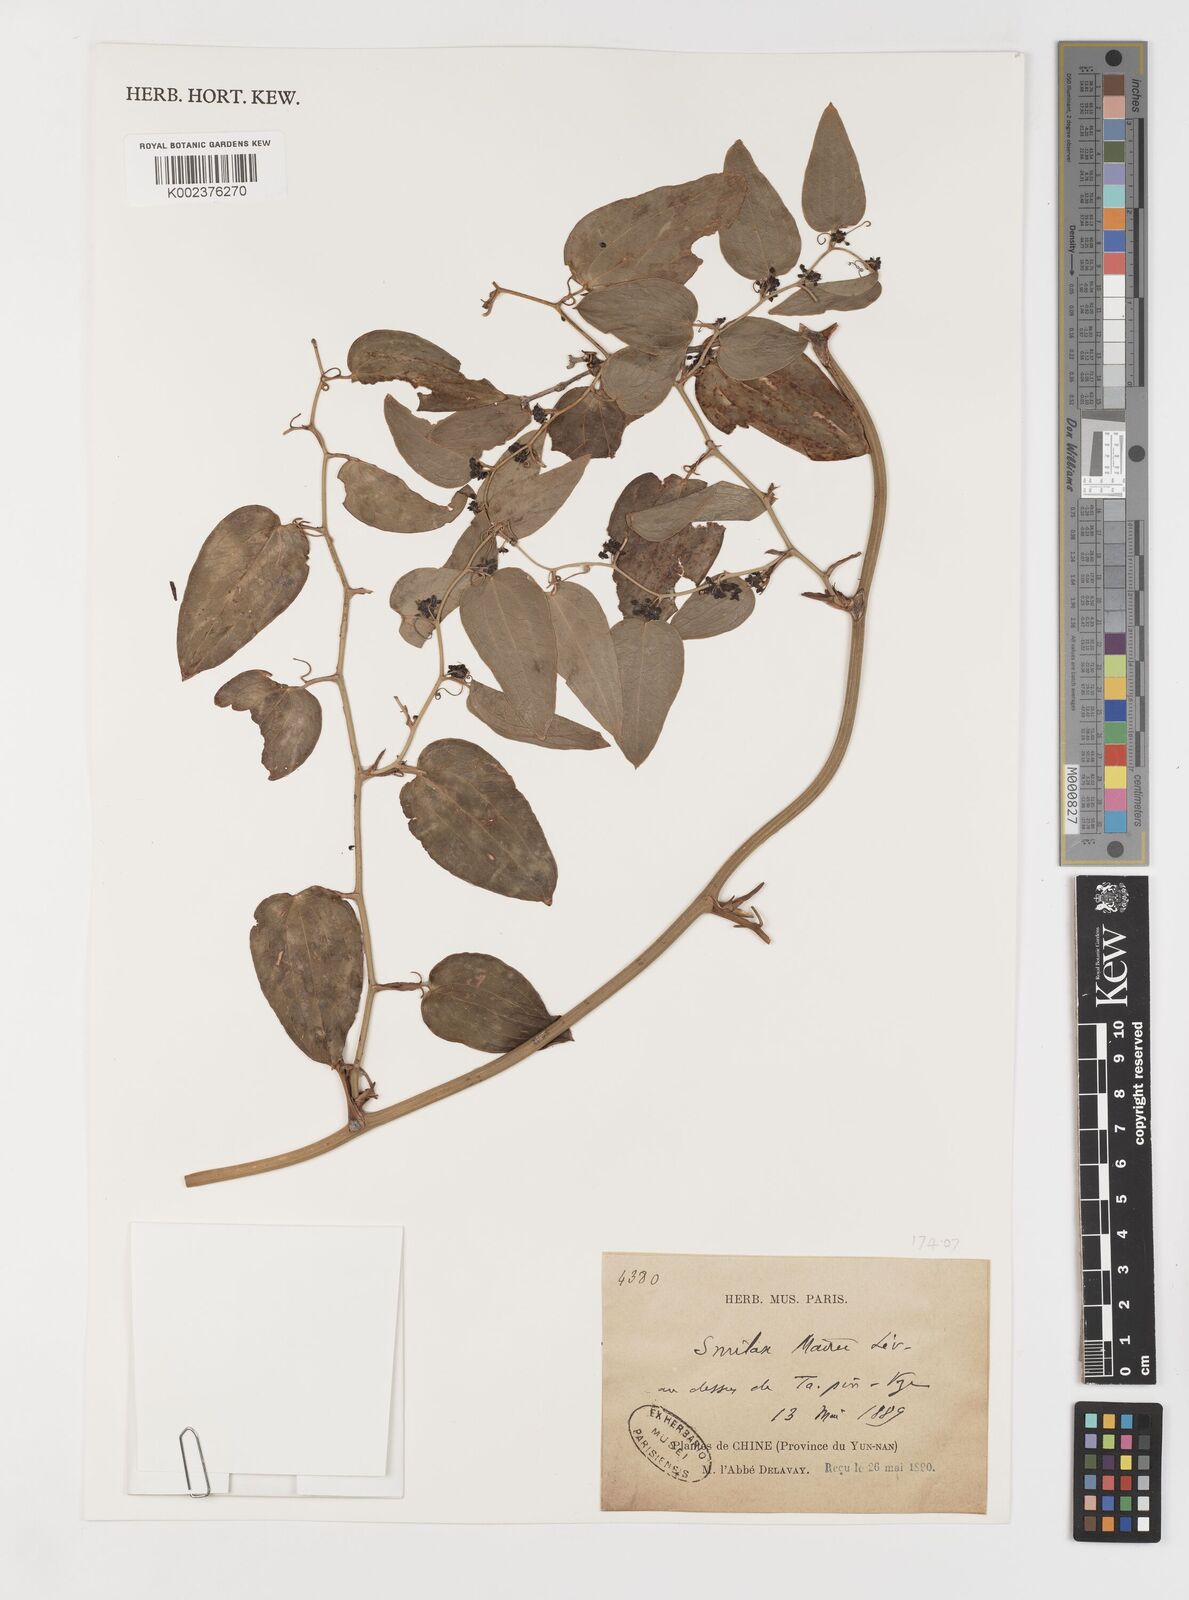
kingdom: Plantae
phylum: Tracheophyta
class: Liliopsida
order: Liliales
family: Smilacaceae
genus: Smilax
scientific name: Smilax mairei
